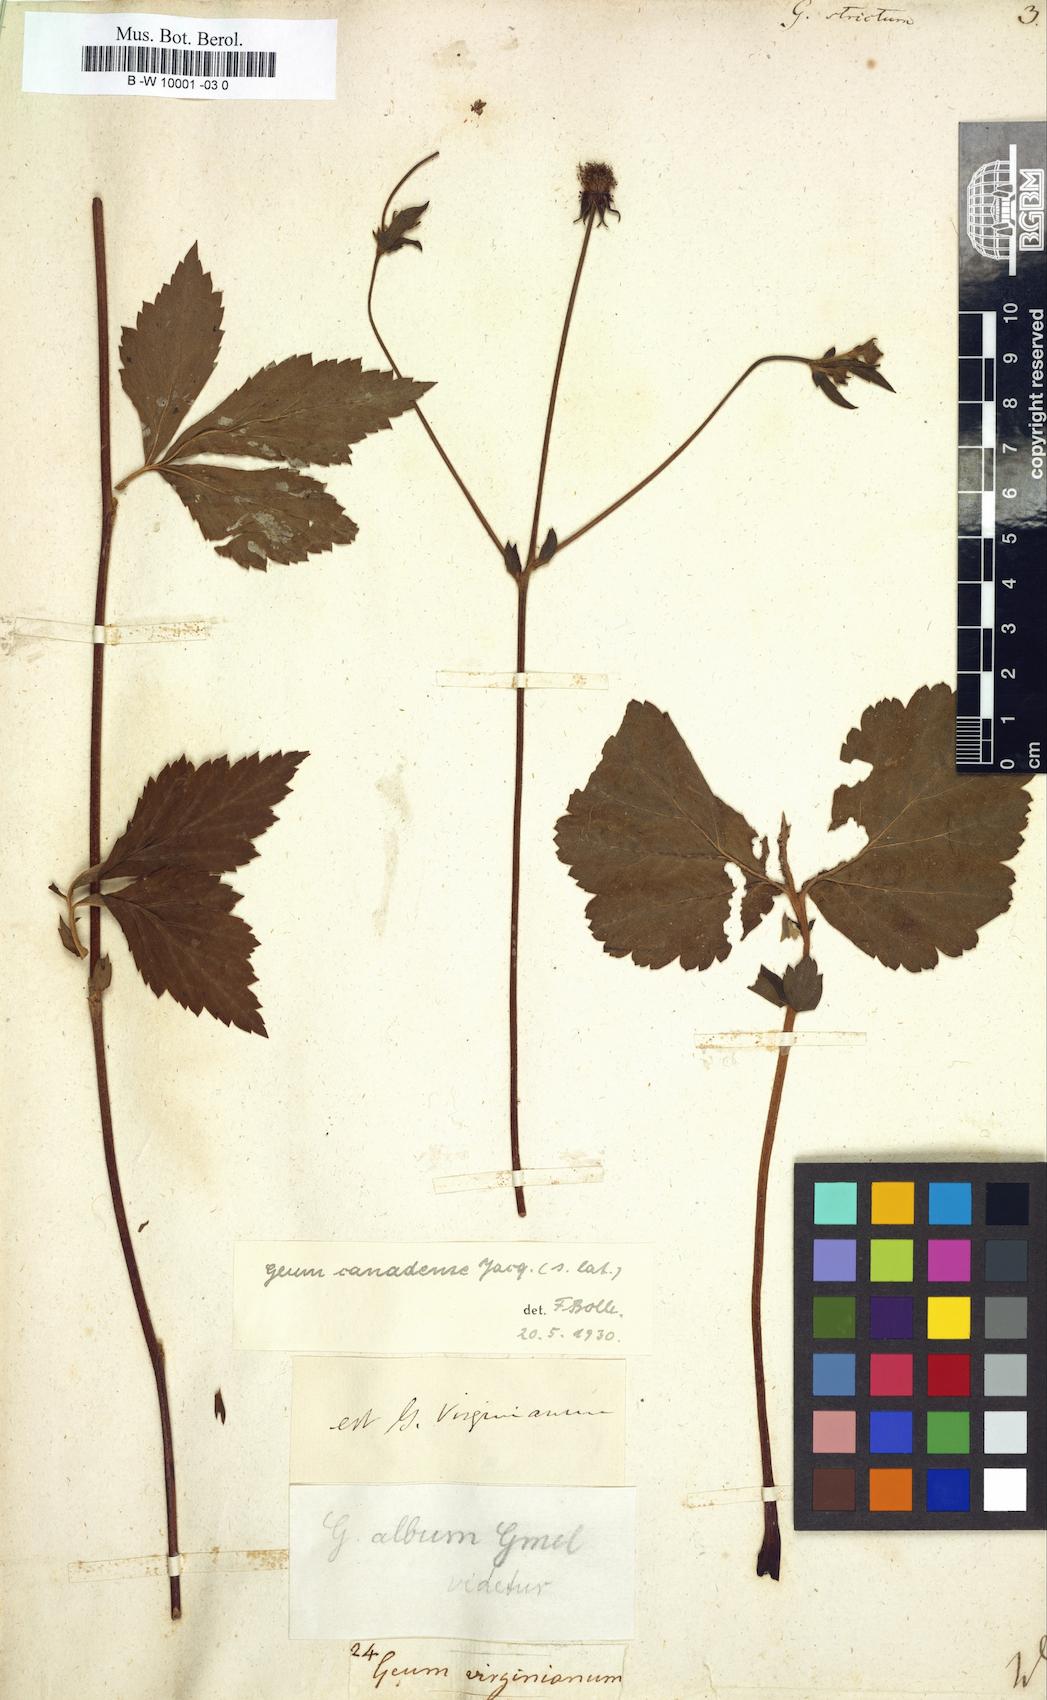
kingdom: Plantae
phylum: Tracheophyta
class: Magnoliopsida
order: Rosales
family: Rosaceae
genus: Geum
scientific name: Geum aleppicum
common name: Yellow avens
